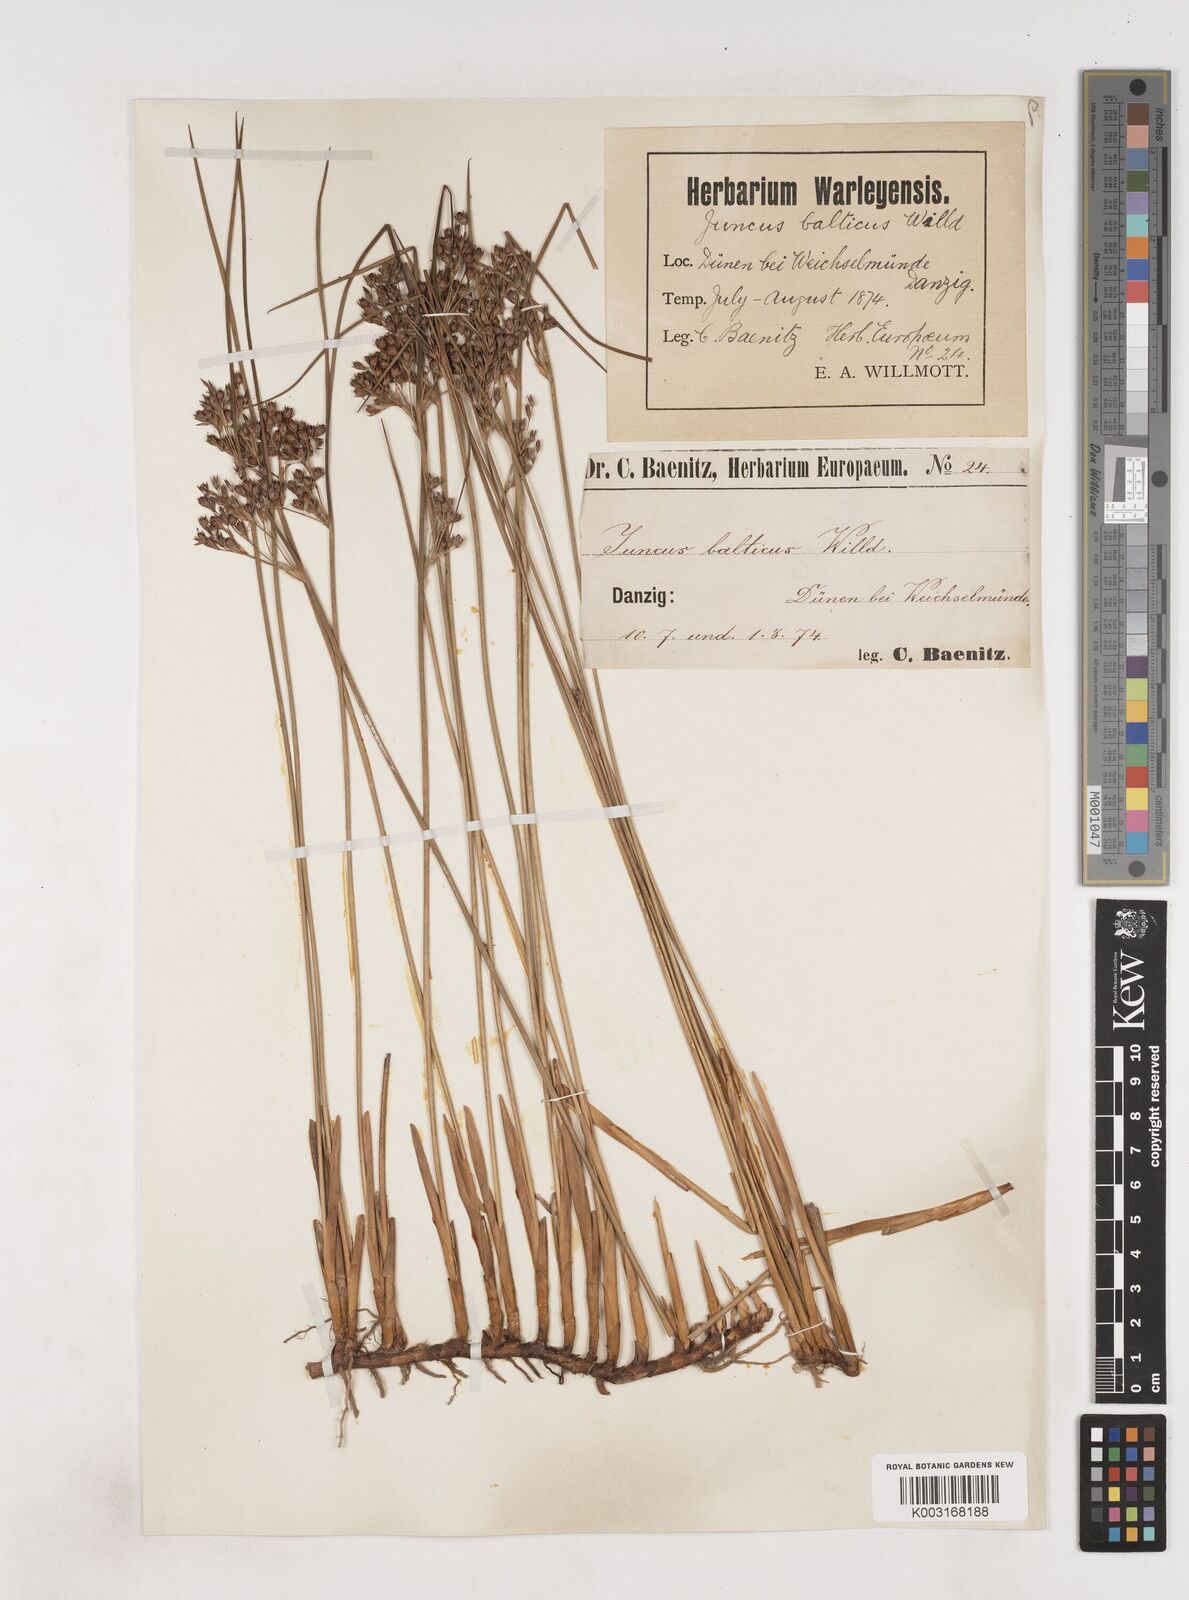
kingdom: Plantae
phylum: Tracheophyta
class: Liliopsida
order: Poales
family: Juncaceae
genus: Juncus
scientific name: Juncus balticus
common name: Baltic rush
